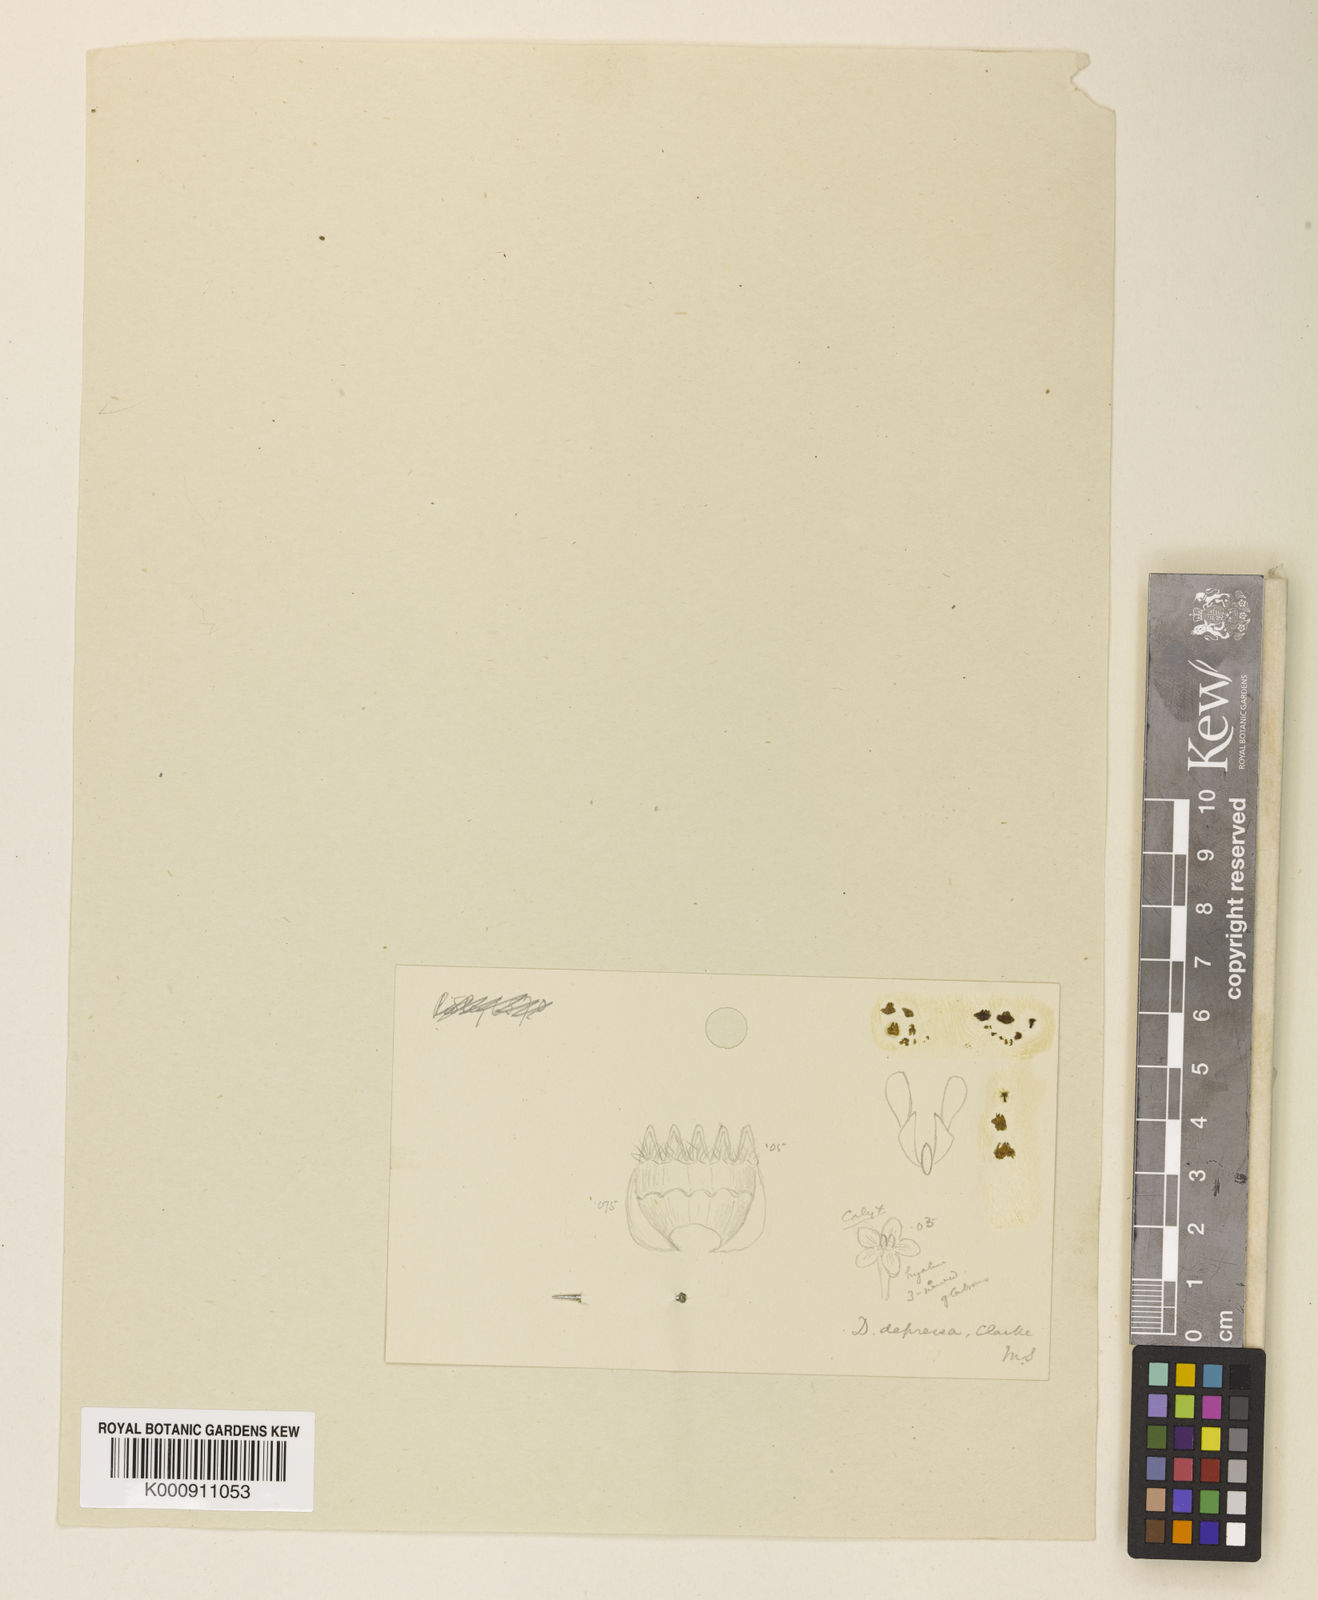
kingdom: Plantae
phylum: Tracheophyta
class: Magnoliopsida
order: Gentianales
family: Apocynaceae
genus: Dischidia
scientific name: Dischidia imbricata
